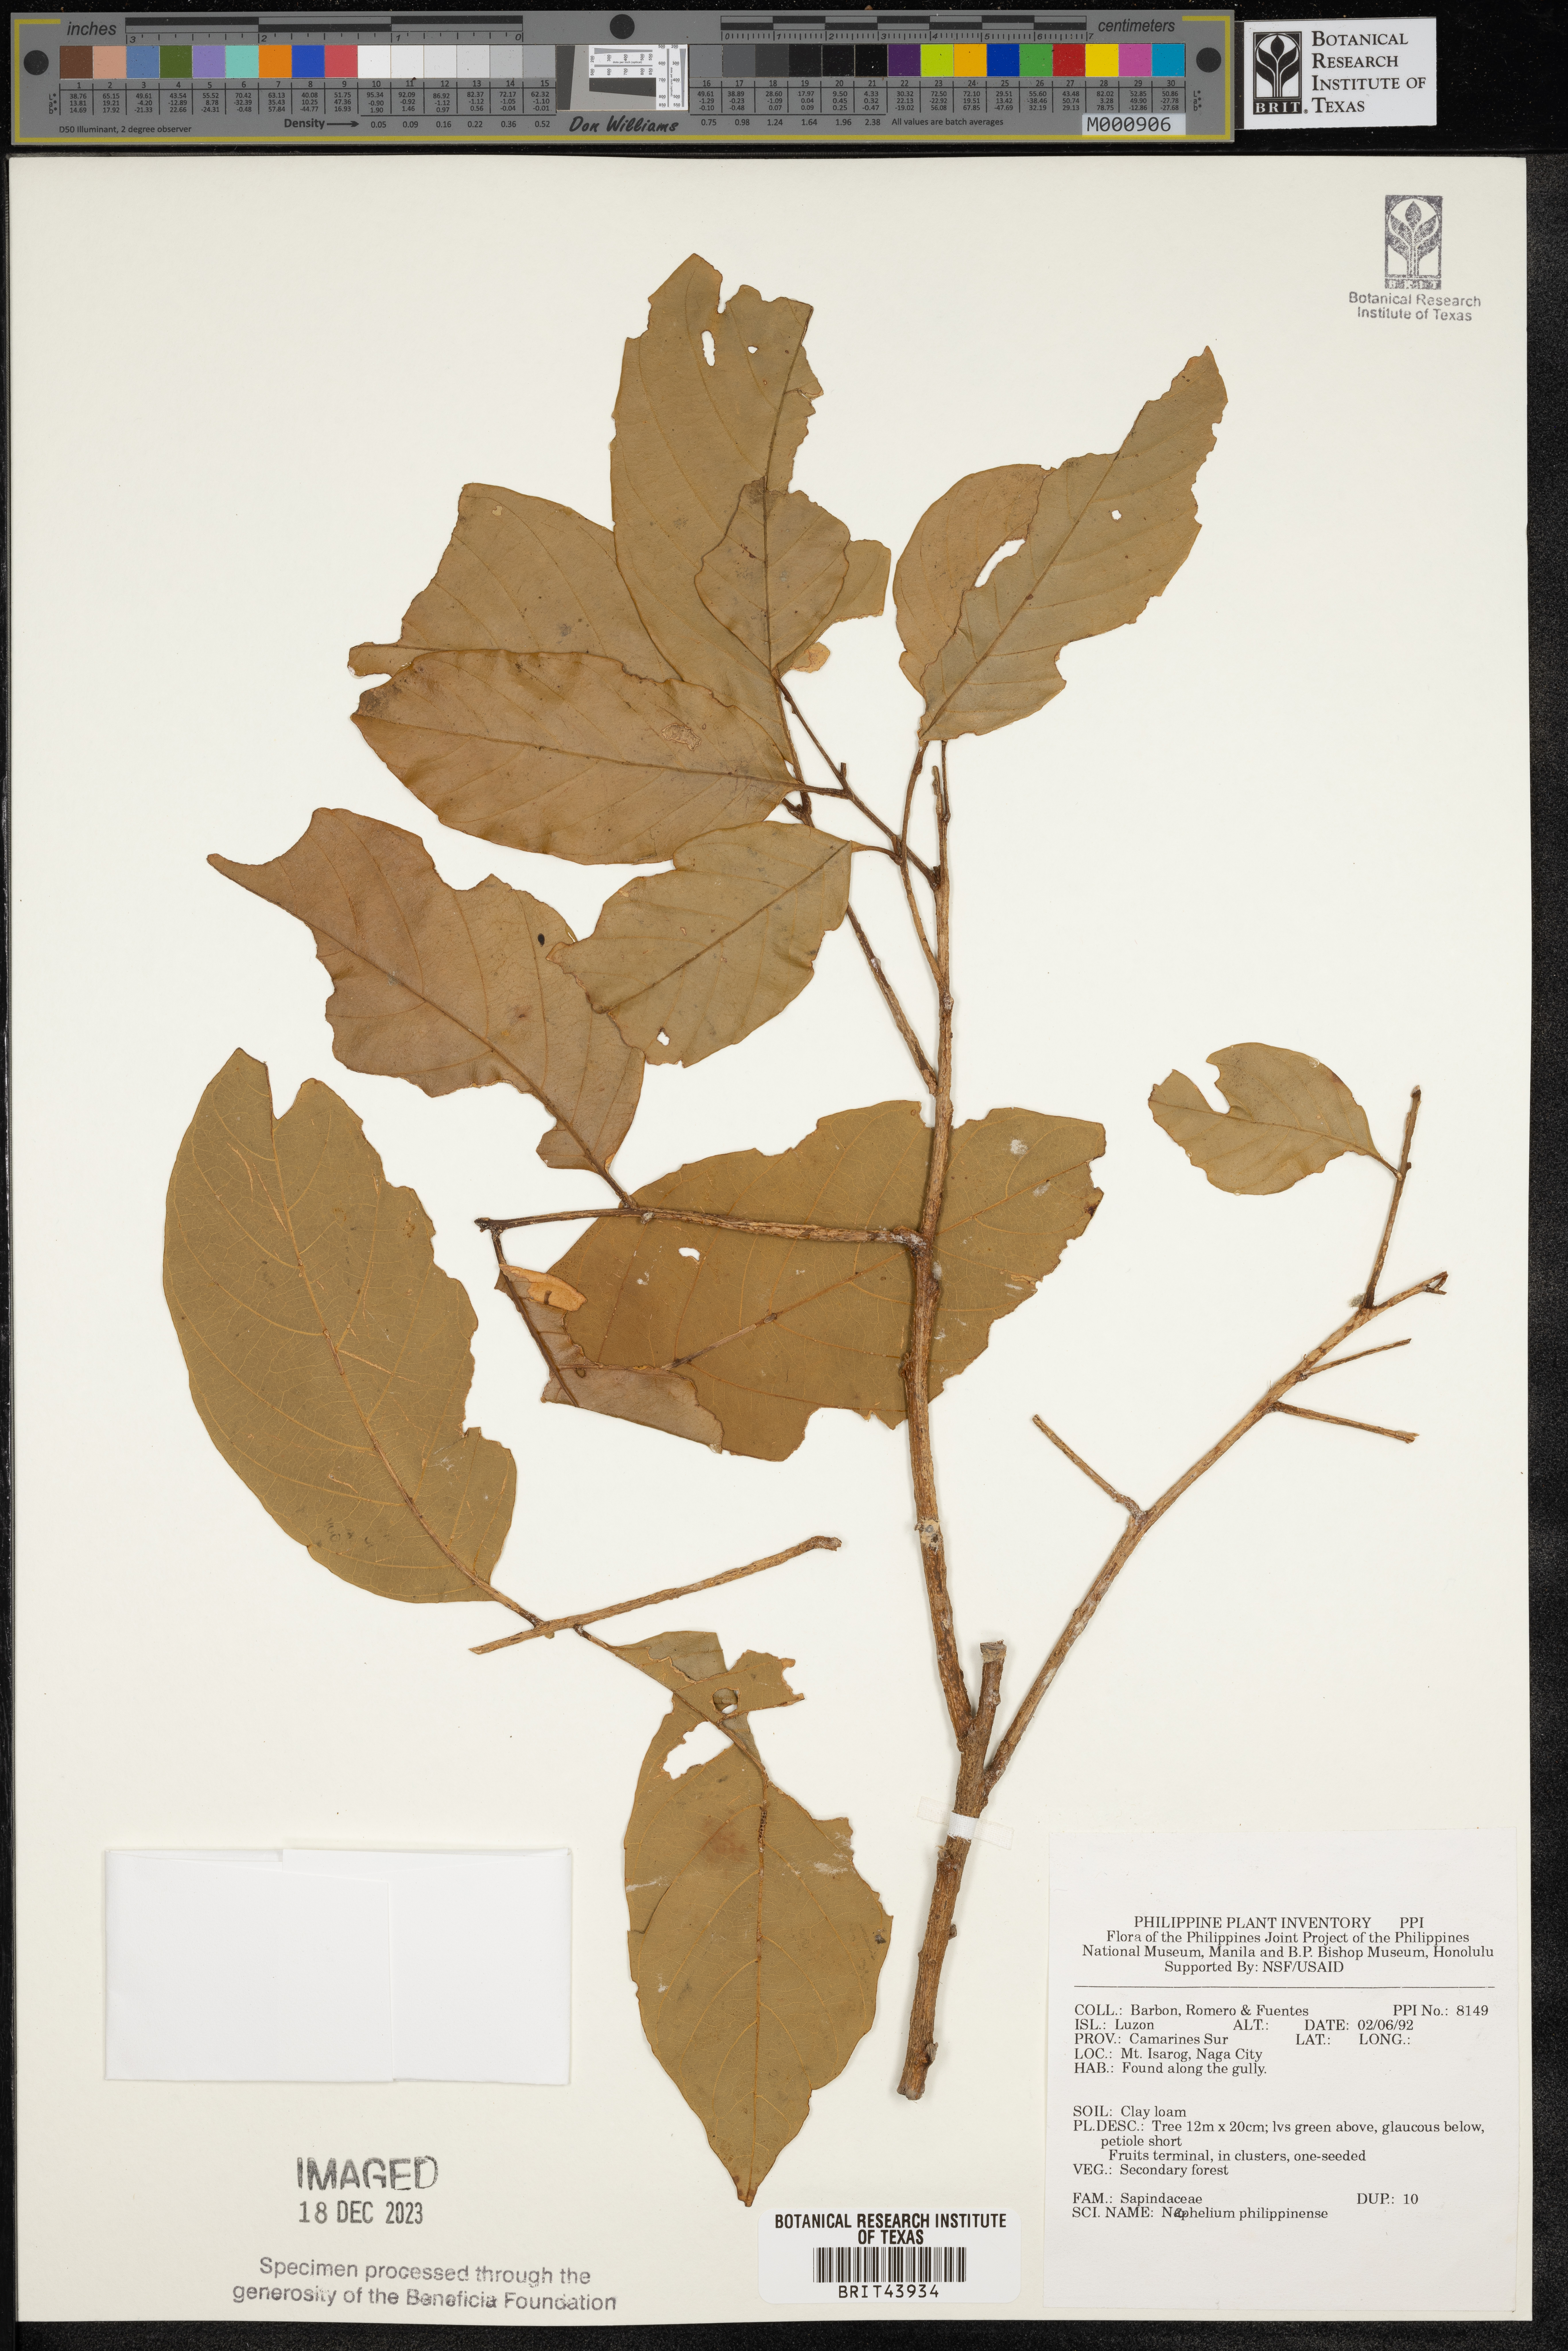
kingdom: Plantae
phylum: Tracheophyta
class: Magnoliopsida
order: Sapindales
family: Sapindaceae
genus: Nephelium
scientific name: Nephelium ramboutan-ake
